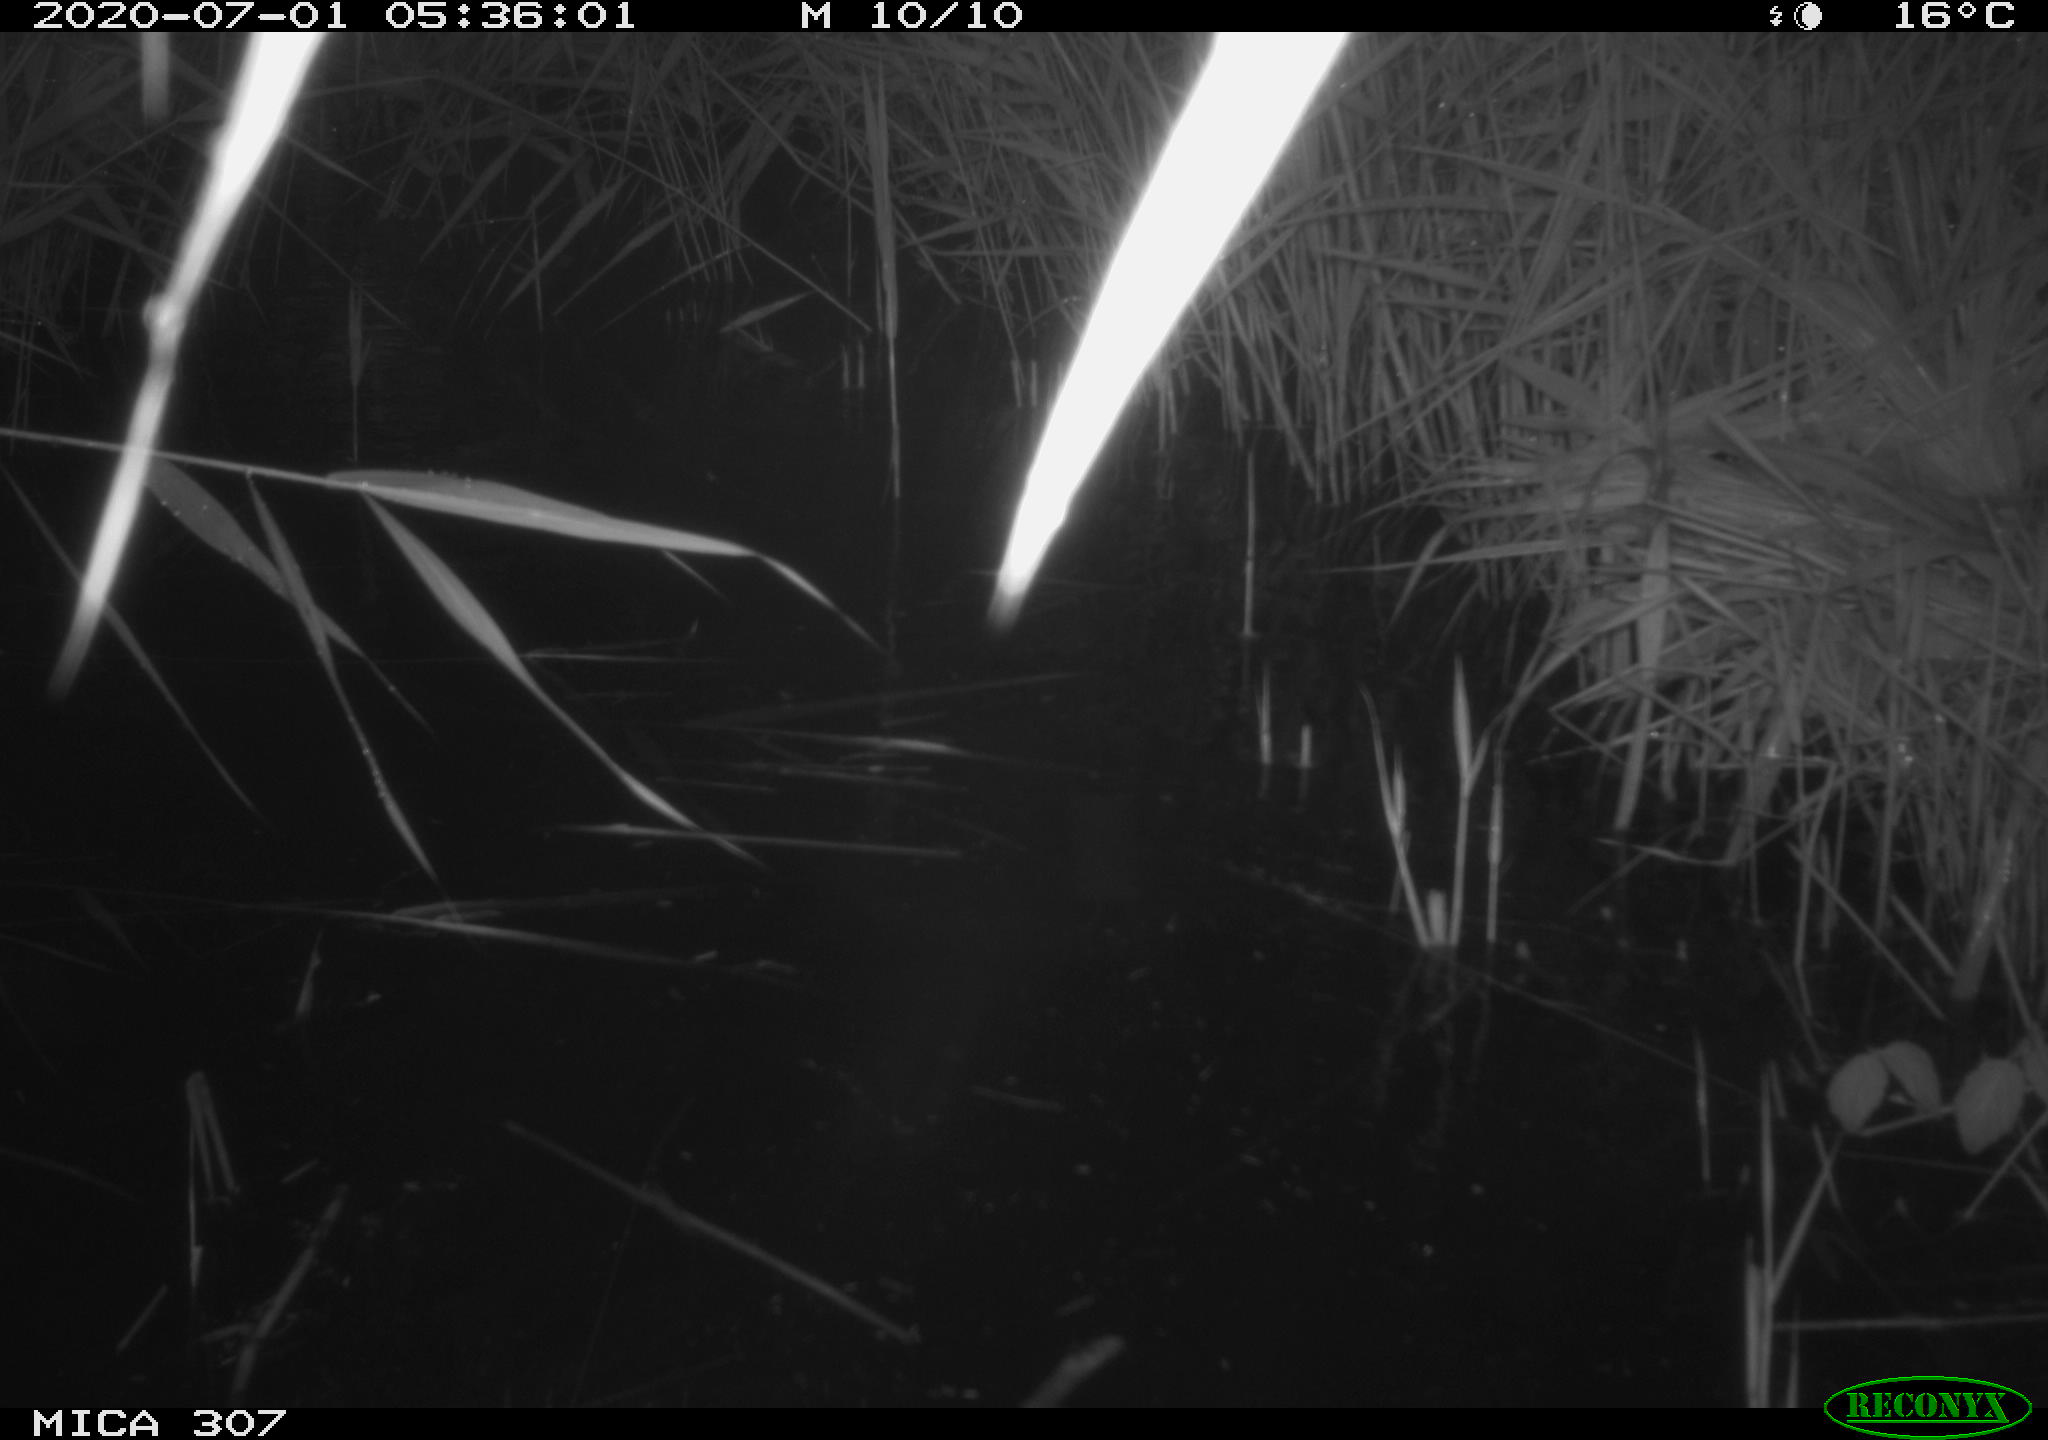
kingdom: Animalia
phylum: Chordata
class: Aves
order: Anseriformes
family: Anatidae
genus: Anas
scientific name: Anas platyrhynchos
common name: Mallard
